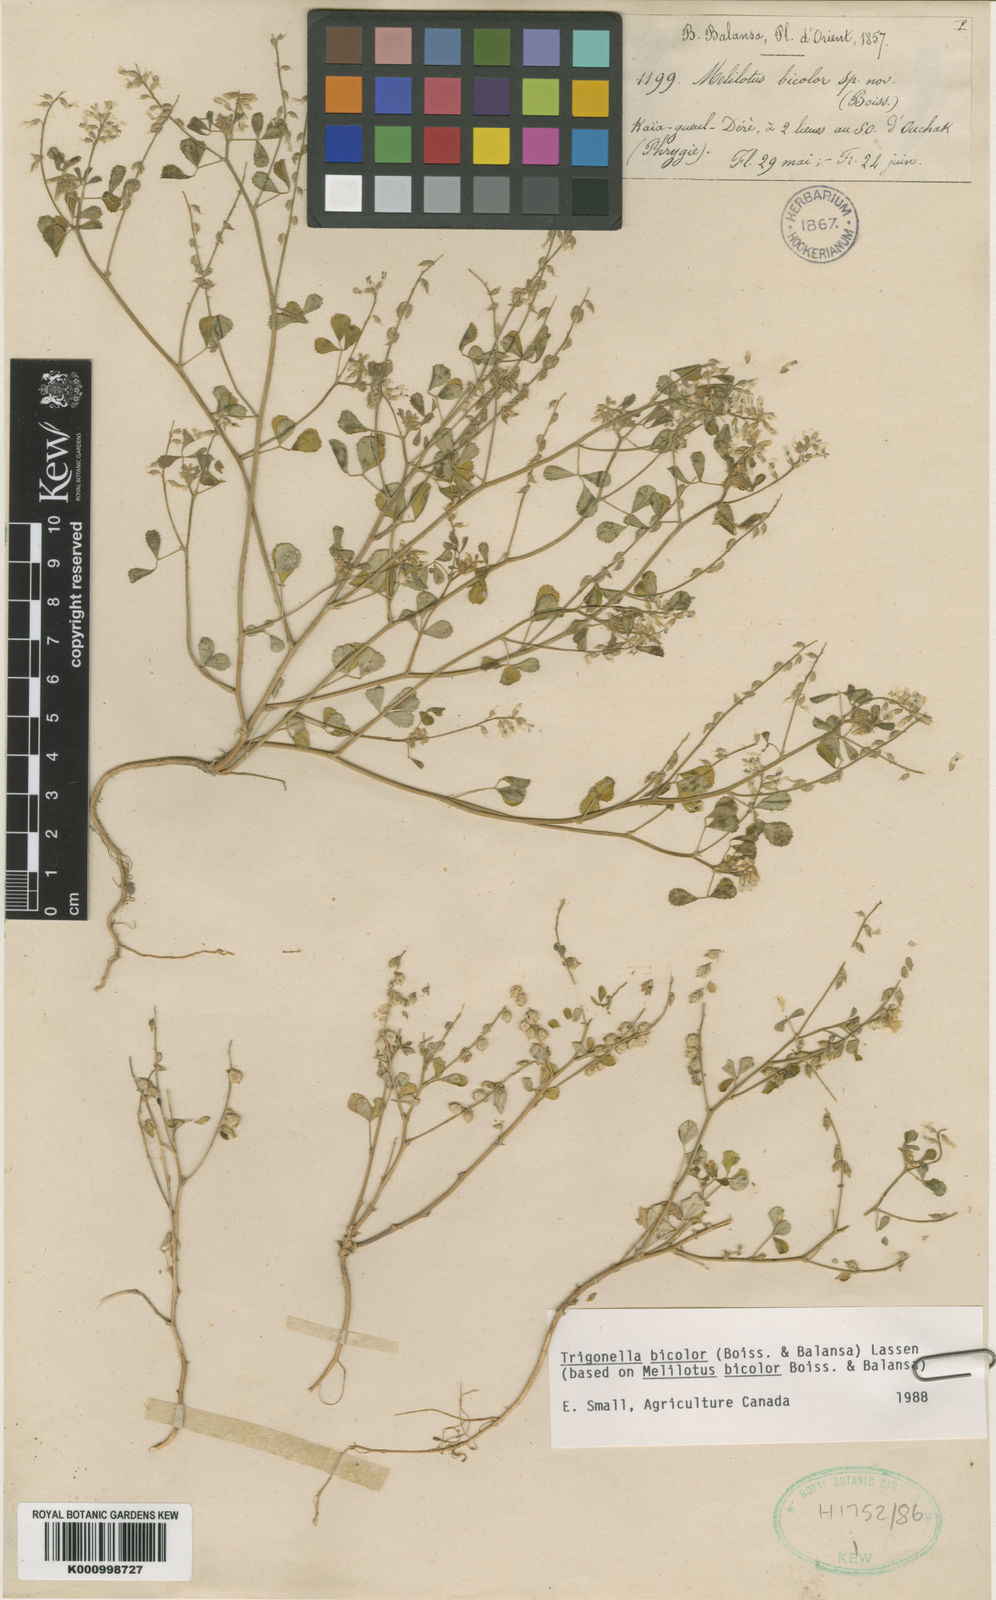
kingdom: Plantae
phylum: Tracheophyta
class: Magnoliopsida
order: Fabales
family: Fabaceae
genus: Melilotus
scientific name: Melilotus bicolor
